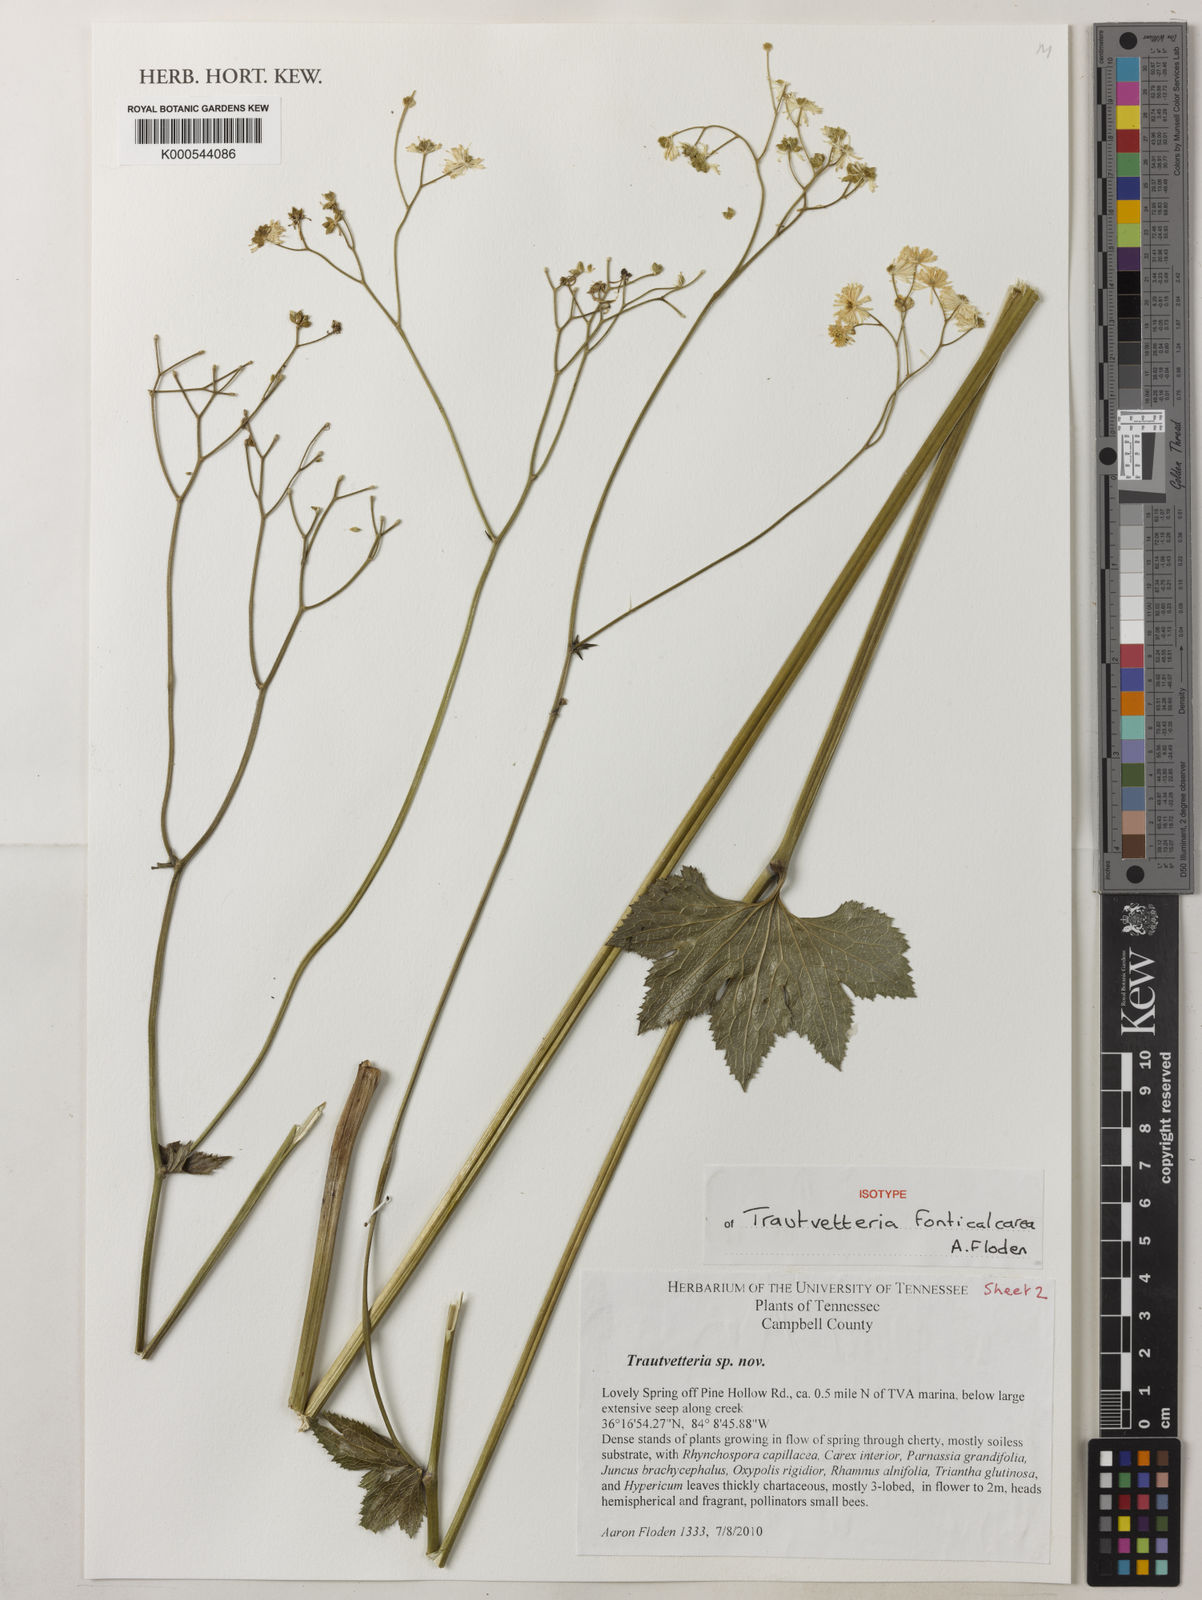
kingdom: Plantae
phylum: Tracheophyta
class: Magnoliopsida
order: Ranunculales
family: Ranunculaceae
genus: Trautvetteria
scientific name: Trautvetteria fonticalcarea
